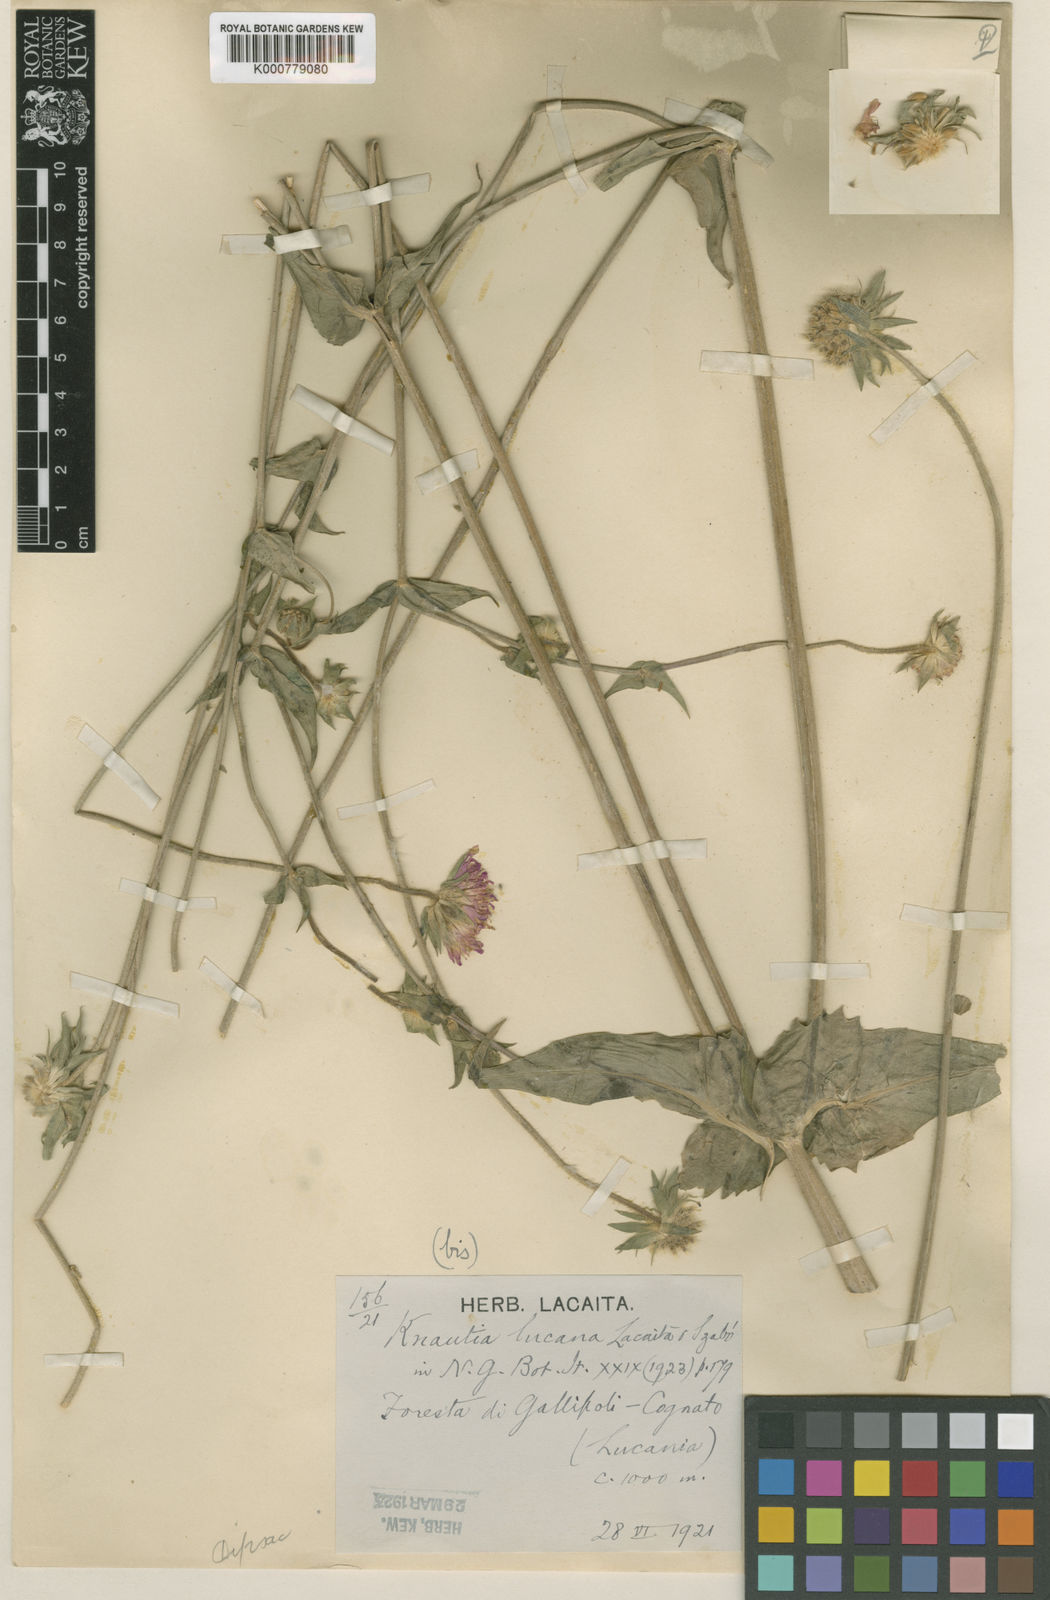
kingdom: Plantae
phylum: Tracheophyta
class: Magnoliopsida
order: Dipsacales
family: Caprifoliaceae
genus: Knautia
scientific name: Knautia
